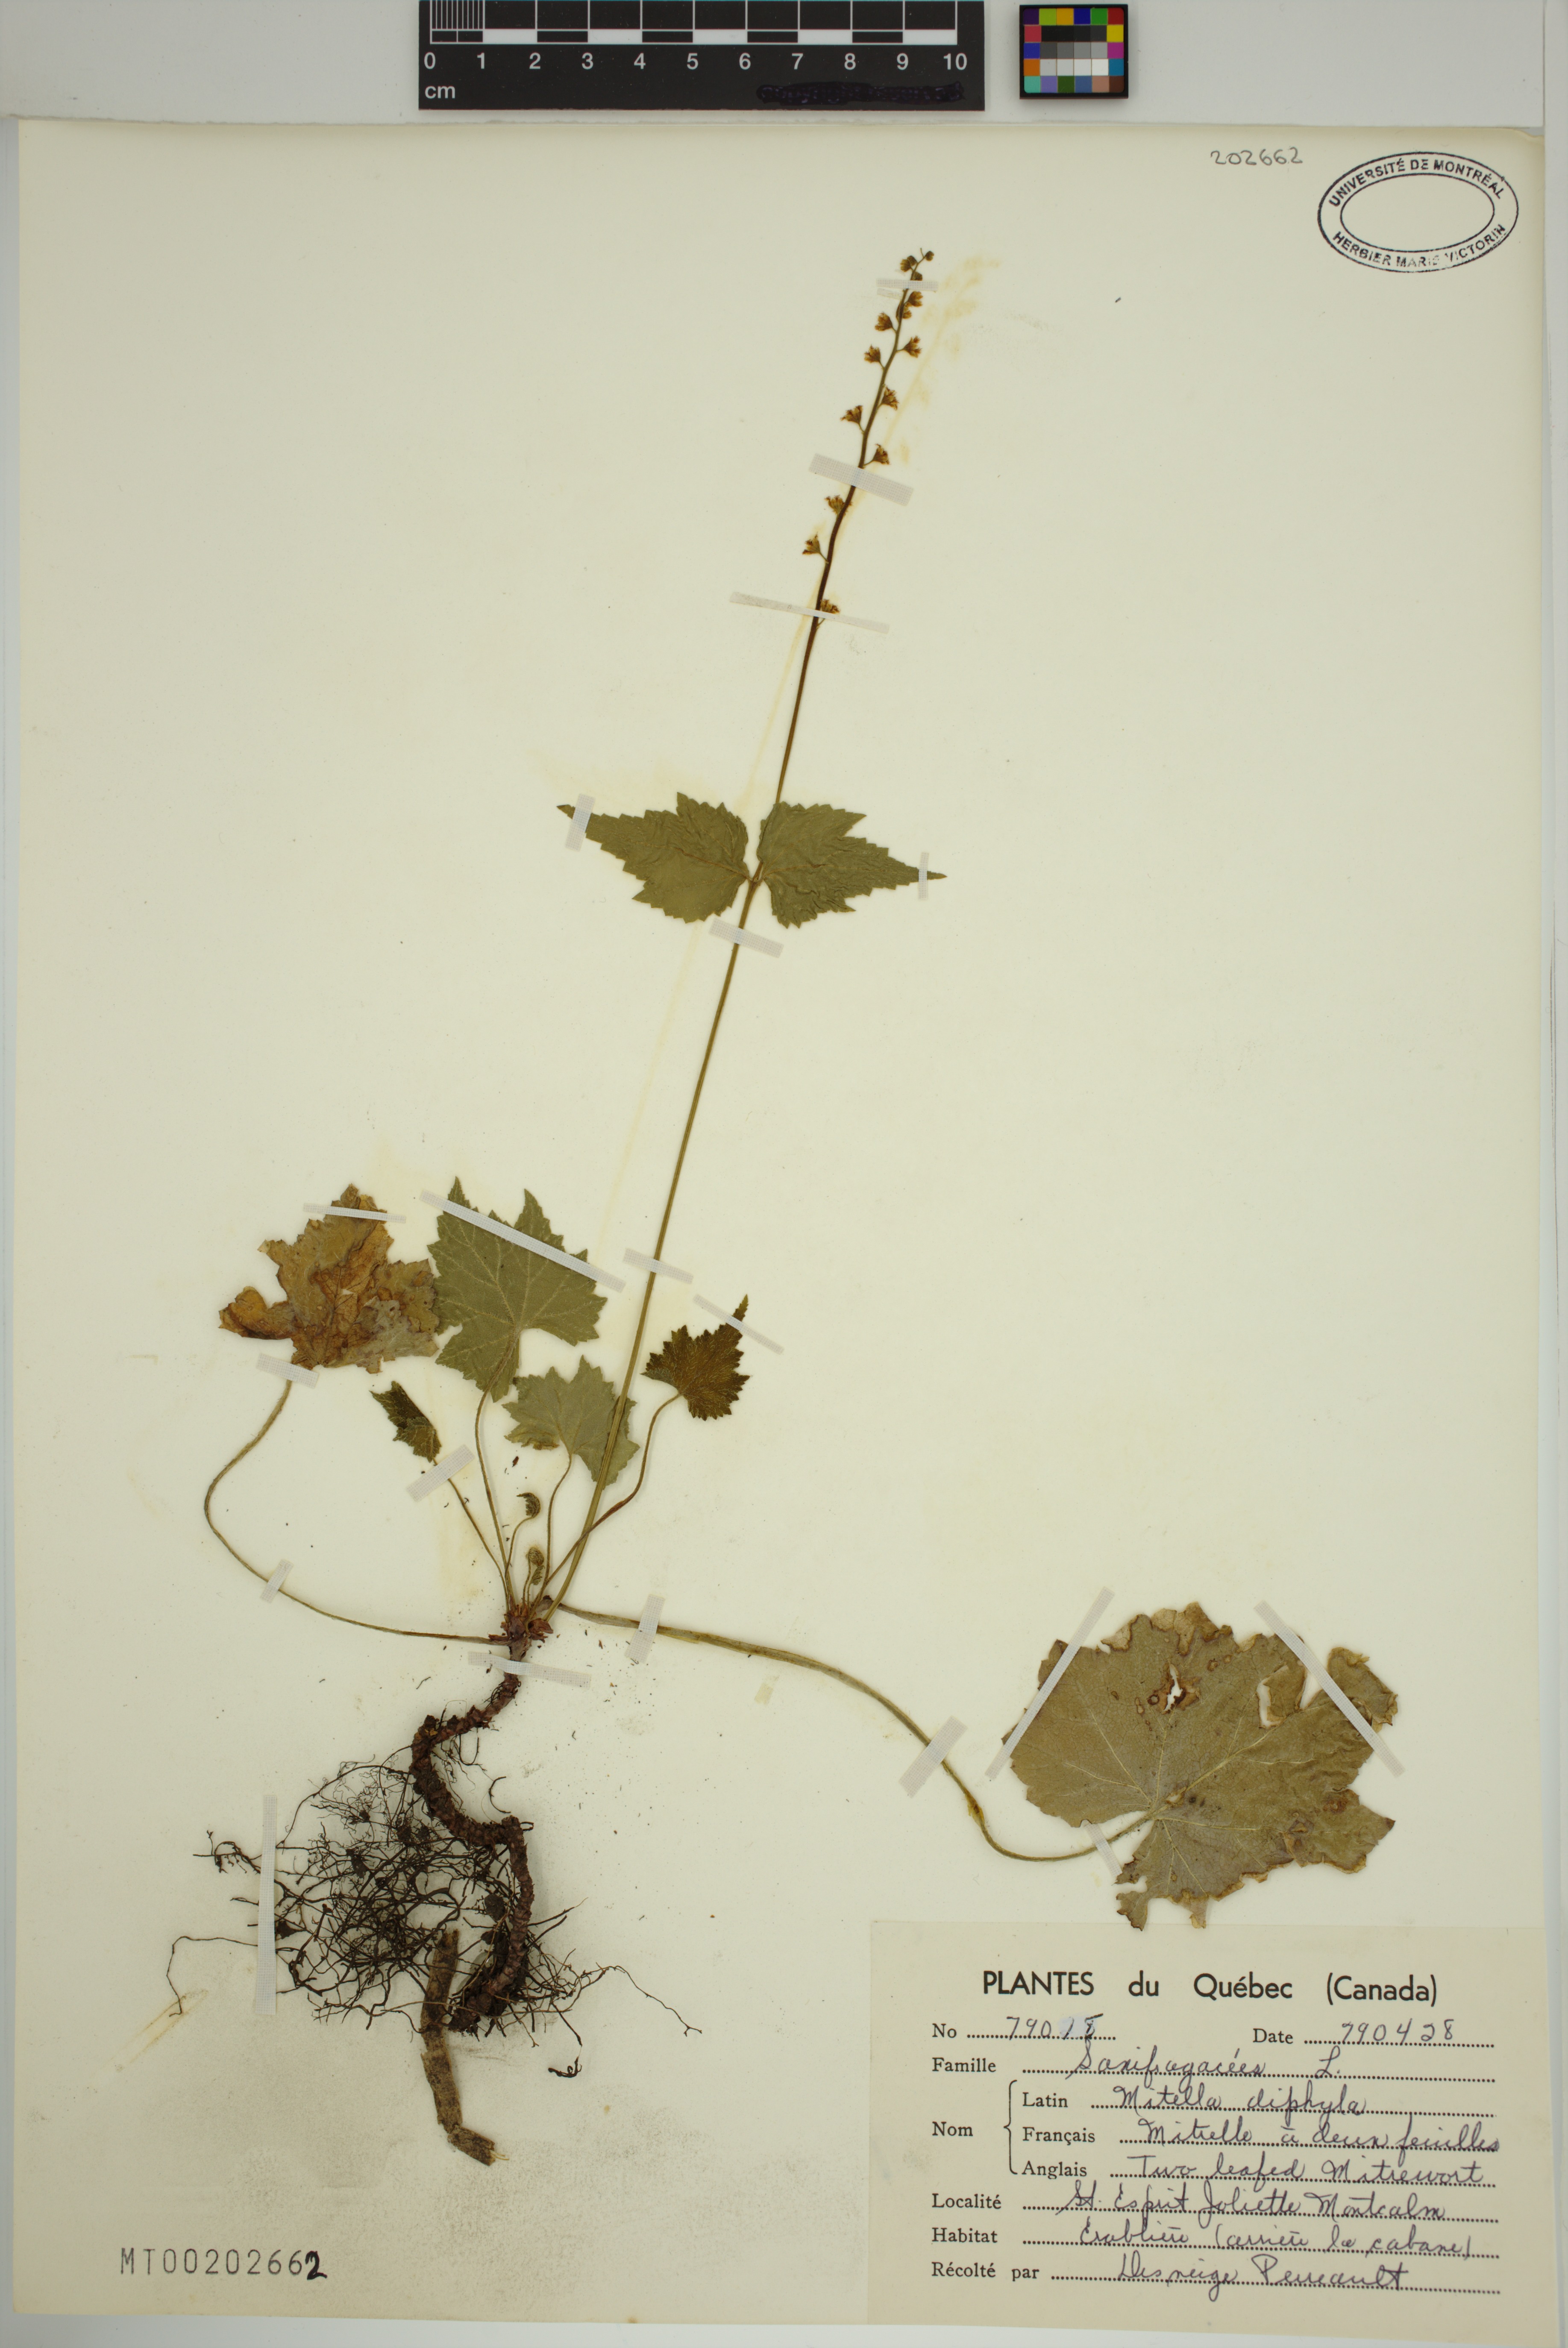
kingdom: Plantae
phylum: Tracheophyta
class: Magnoliopsida
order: Saxifragales
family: Saxifragaceae
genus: Mitella
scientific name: Mitella diphylla
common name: Coolwort
